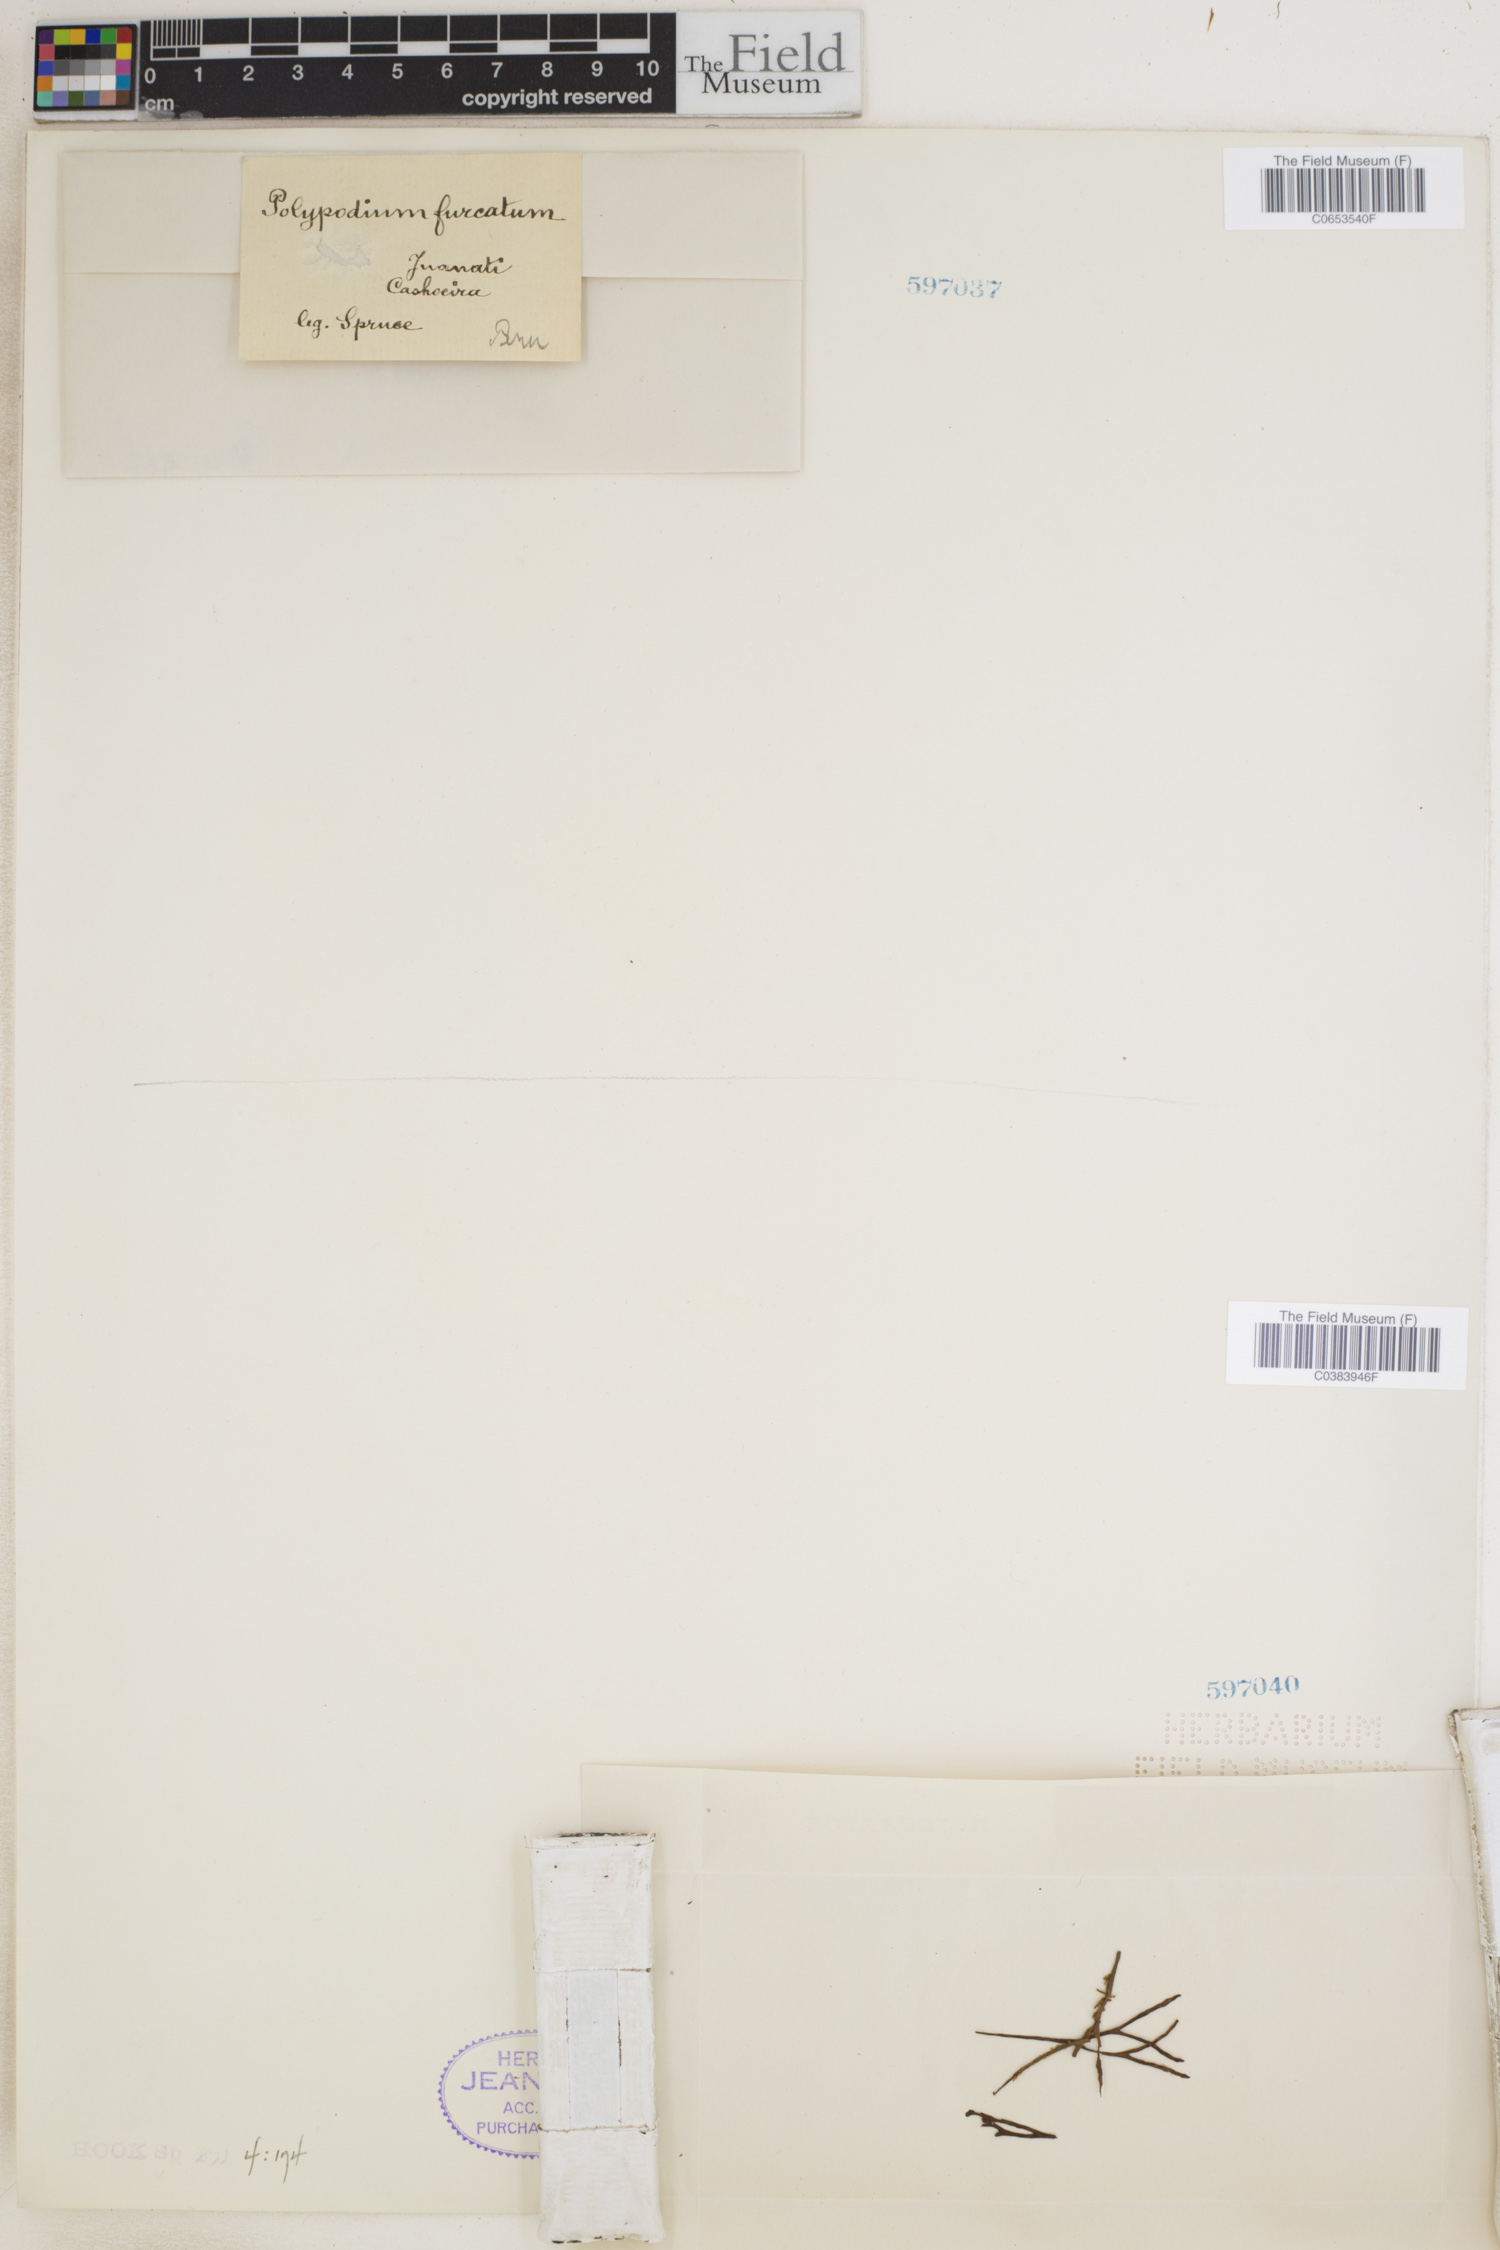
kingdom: Plantae
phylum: Tracheophyta
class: Polypodiopsida
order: Polypodiales
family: Polypodiaceae
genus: Grammitis
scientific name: Grammitis obtusa
